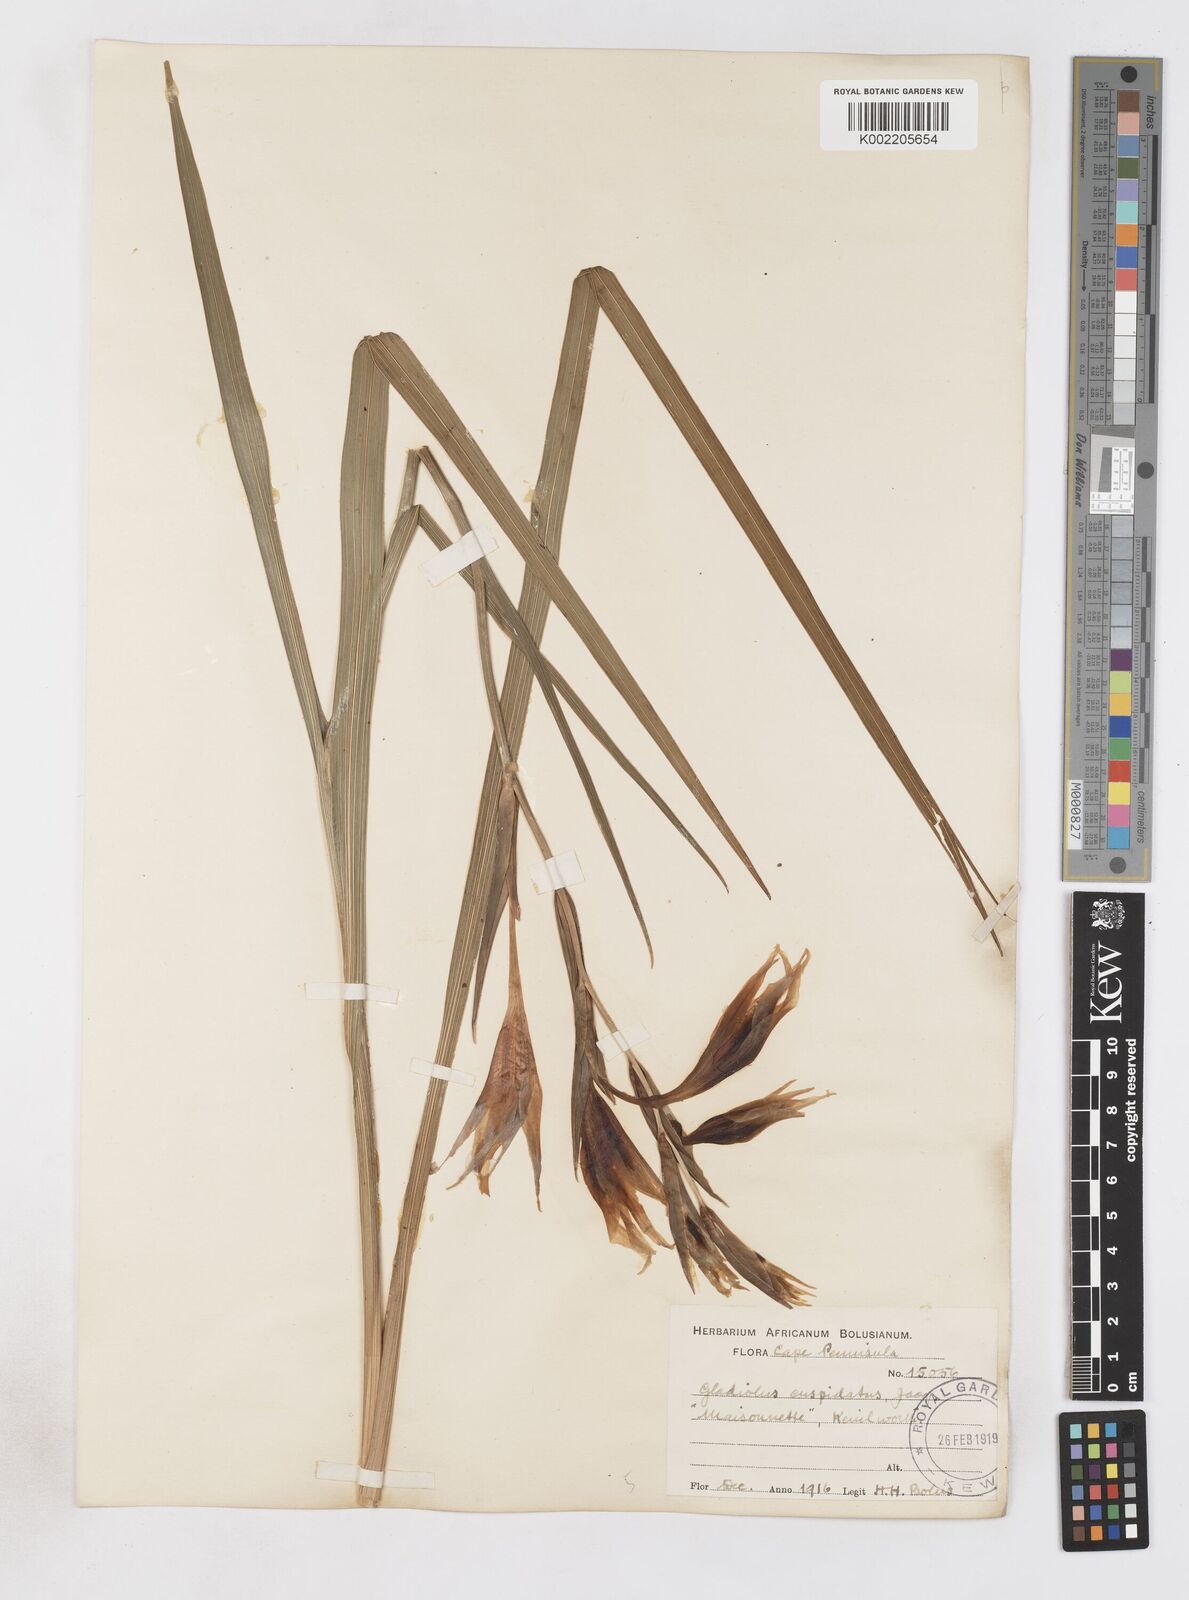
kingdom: Plantae
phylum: Tracheophyta
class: Liliopsida
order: Asparagales
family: Iridaceae
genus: Gladiolus
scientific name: Gladiolus undulatus
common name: Large painted-lady
